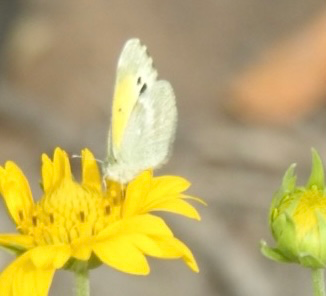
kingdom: Animalia
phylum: Arthropoda
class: Insecta
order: Lepidoptera
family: Pieridae
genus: Nathalis
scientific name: Nathalis iole
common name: Dainty Sulphur
